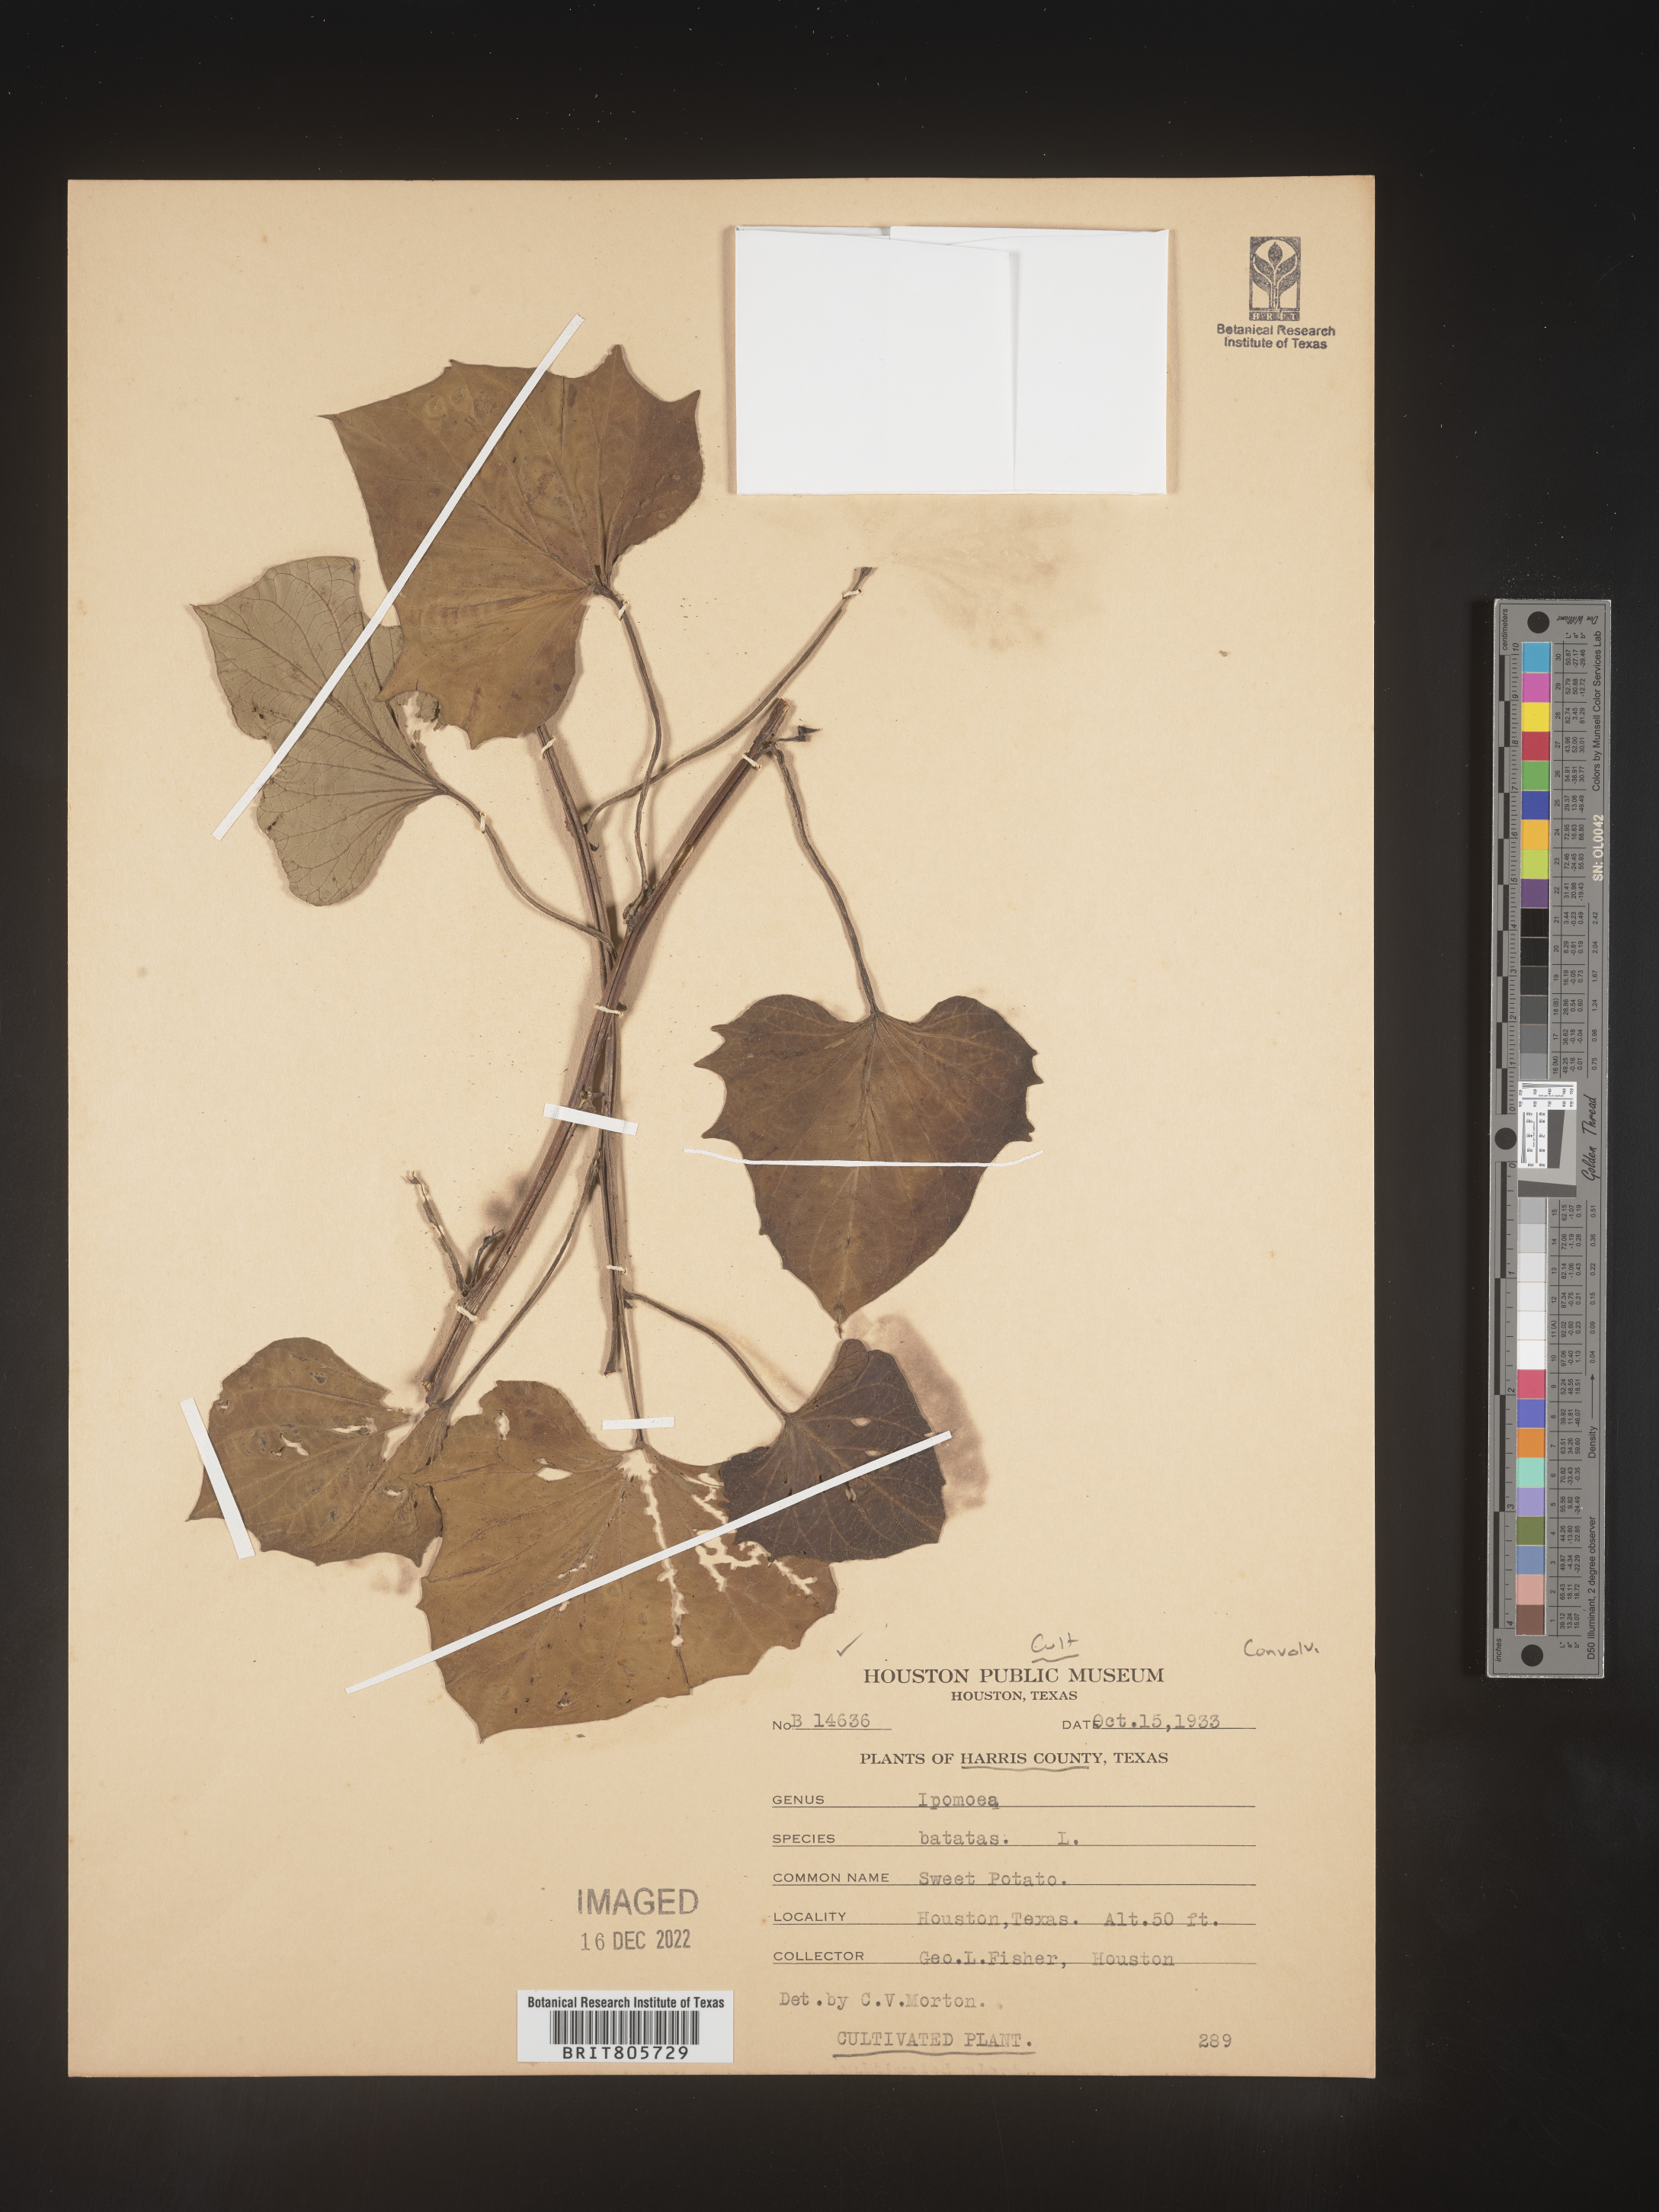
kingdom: Plantae
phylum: Tracheophyta
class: Magnoliopsida
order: Solanales
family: Convolvulaceae
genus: Ipomoea
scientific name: Ipomoea
